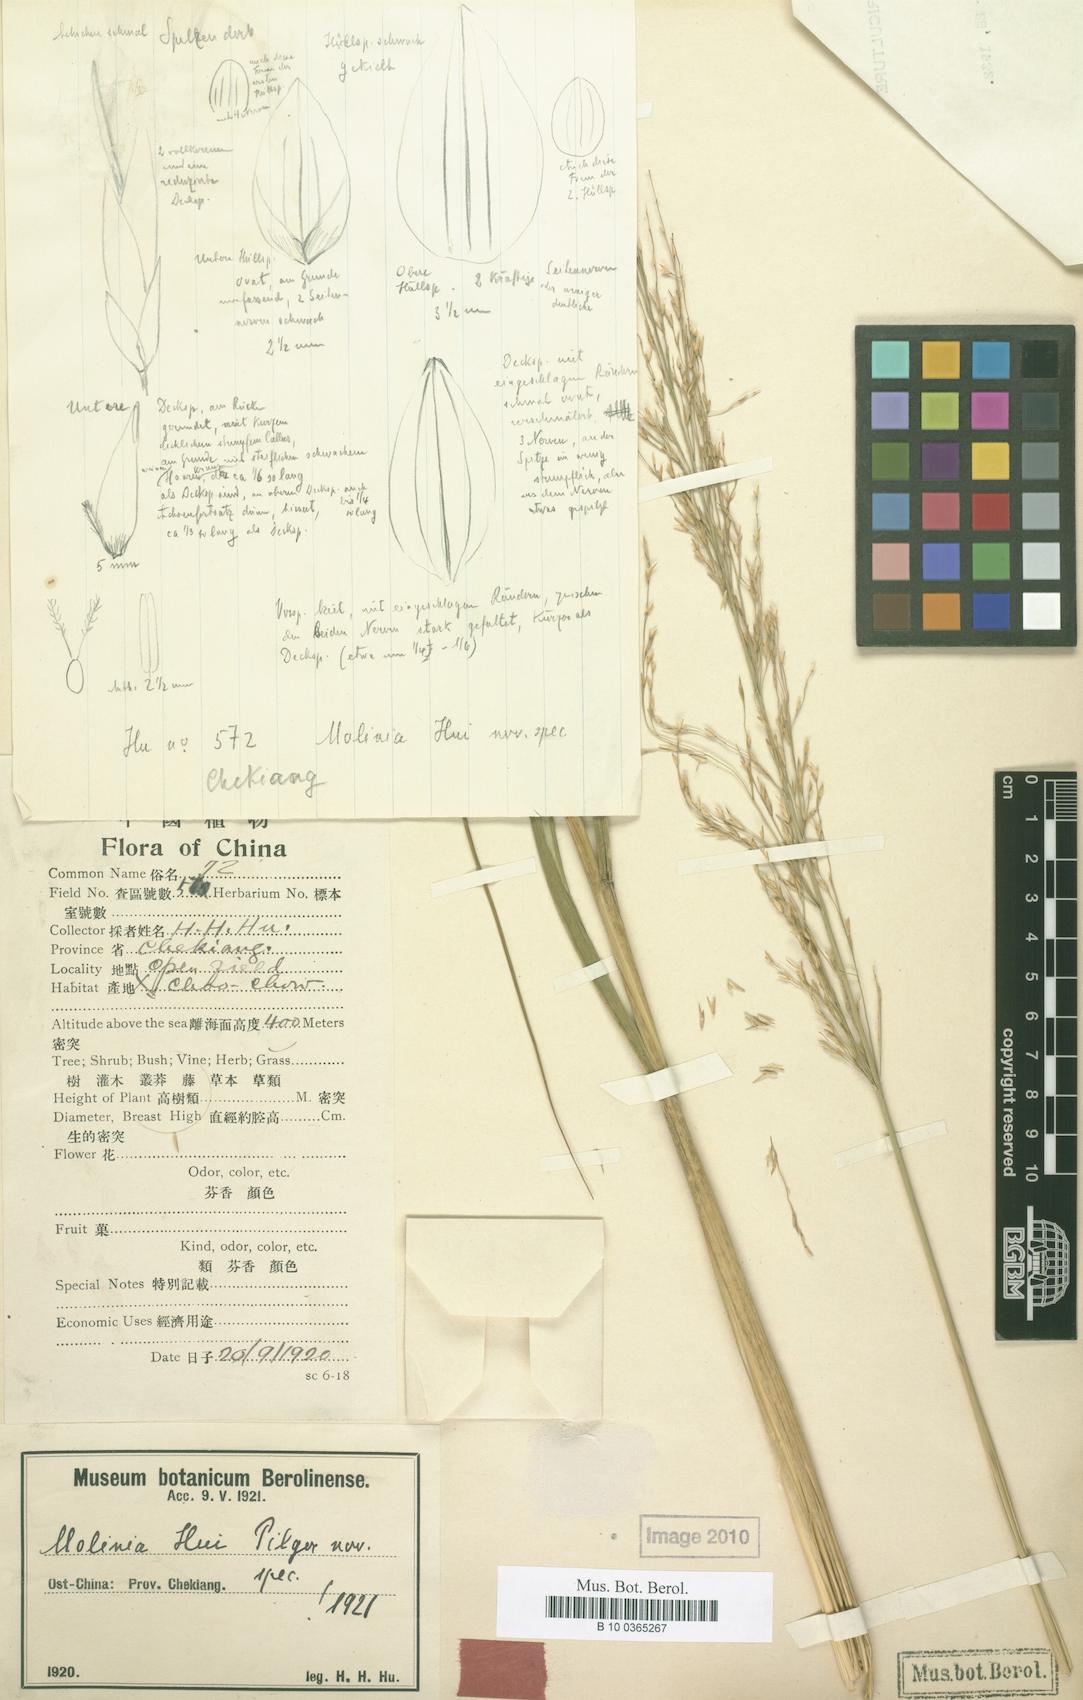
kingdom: Plantae
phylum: Tracheophyta
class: Liliopsida
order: Poales
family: Poaceae
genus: Moliniopsis
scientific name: Moliniopsis japonica
